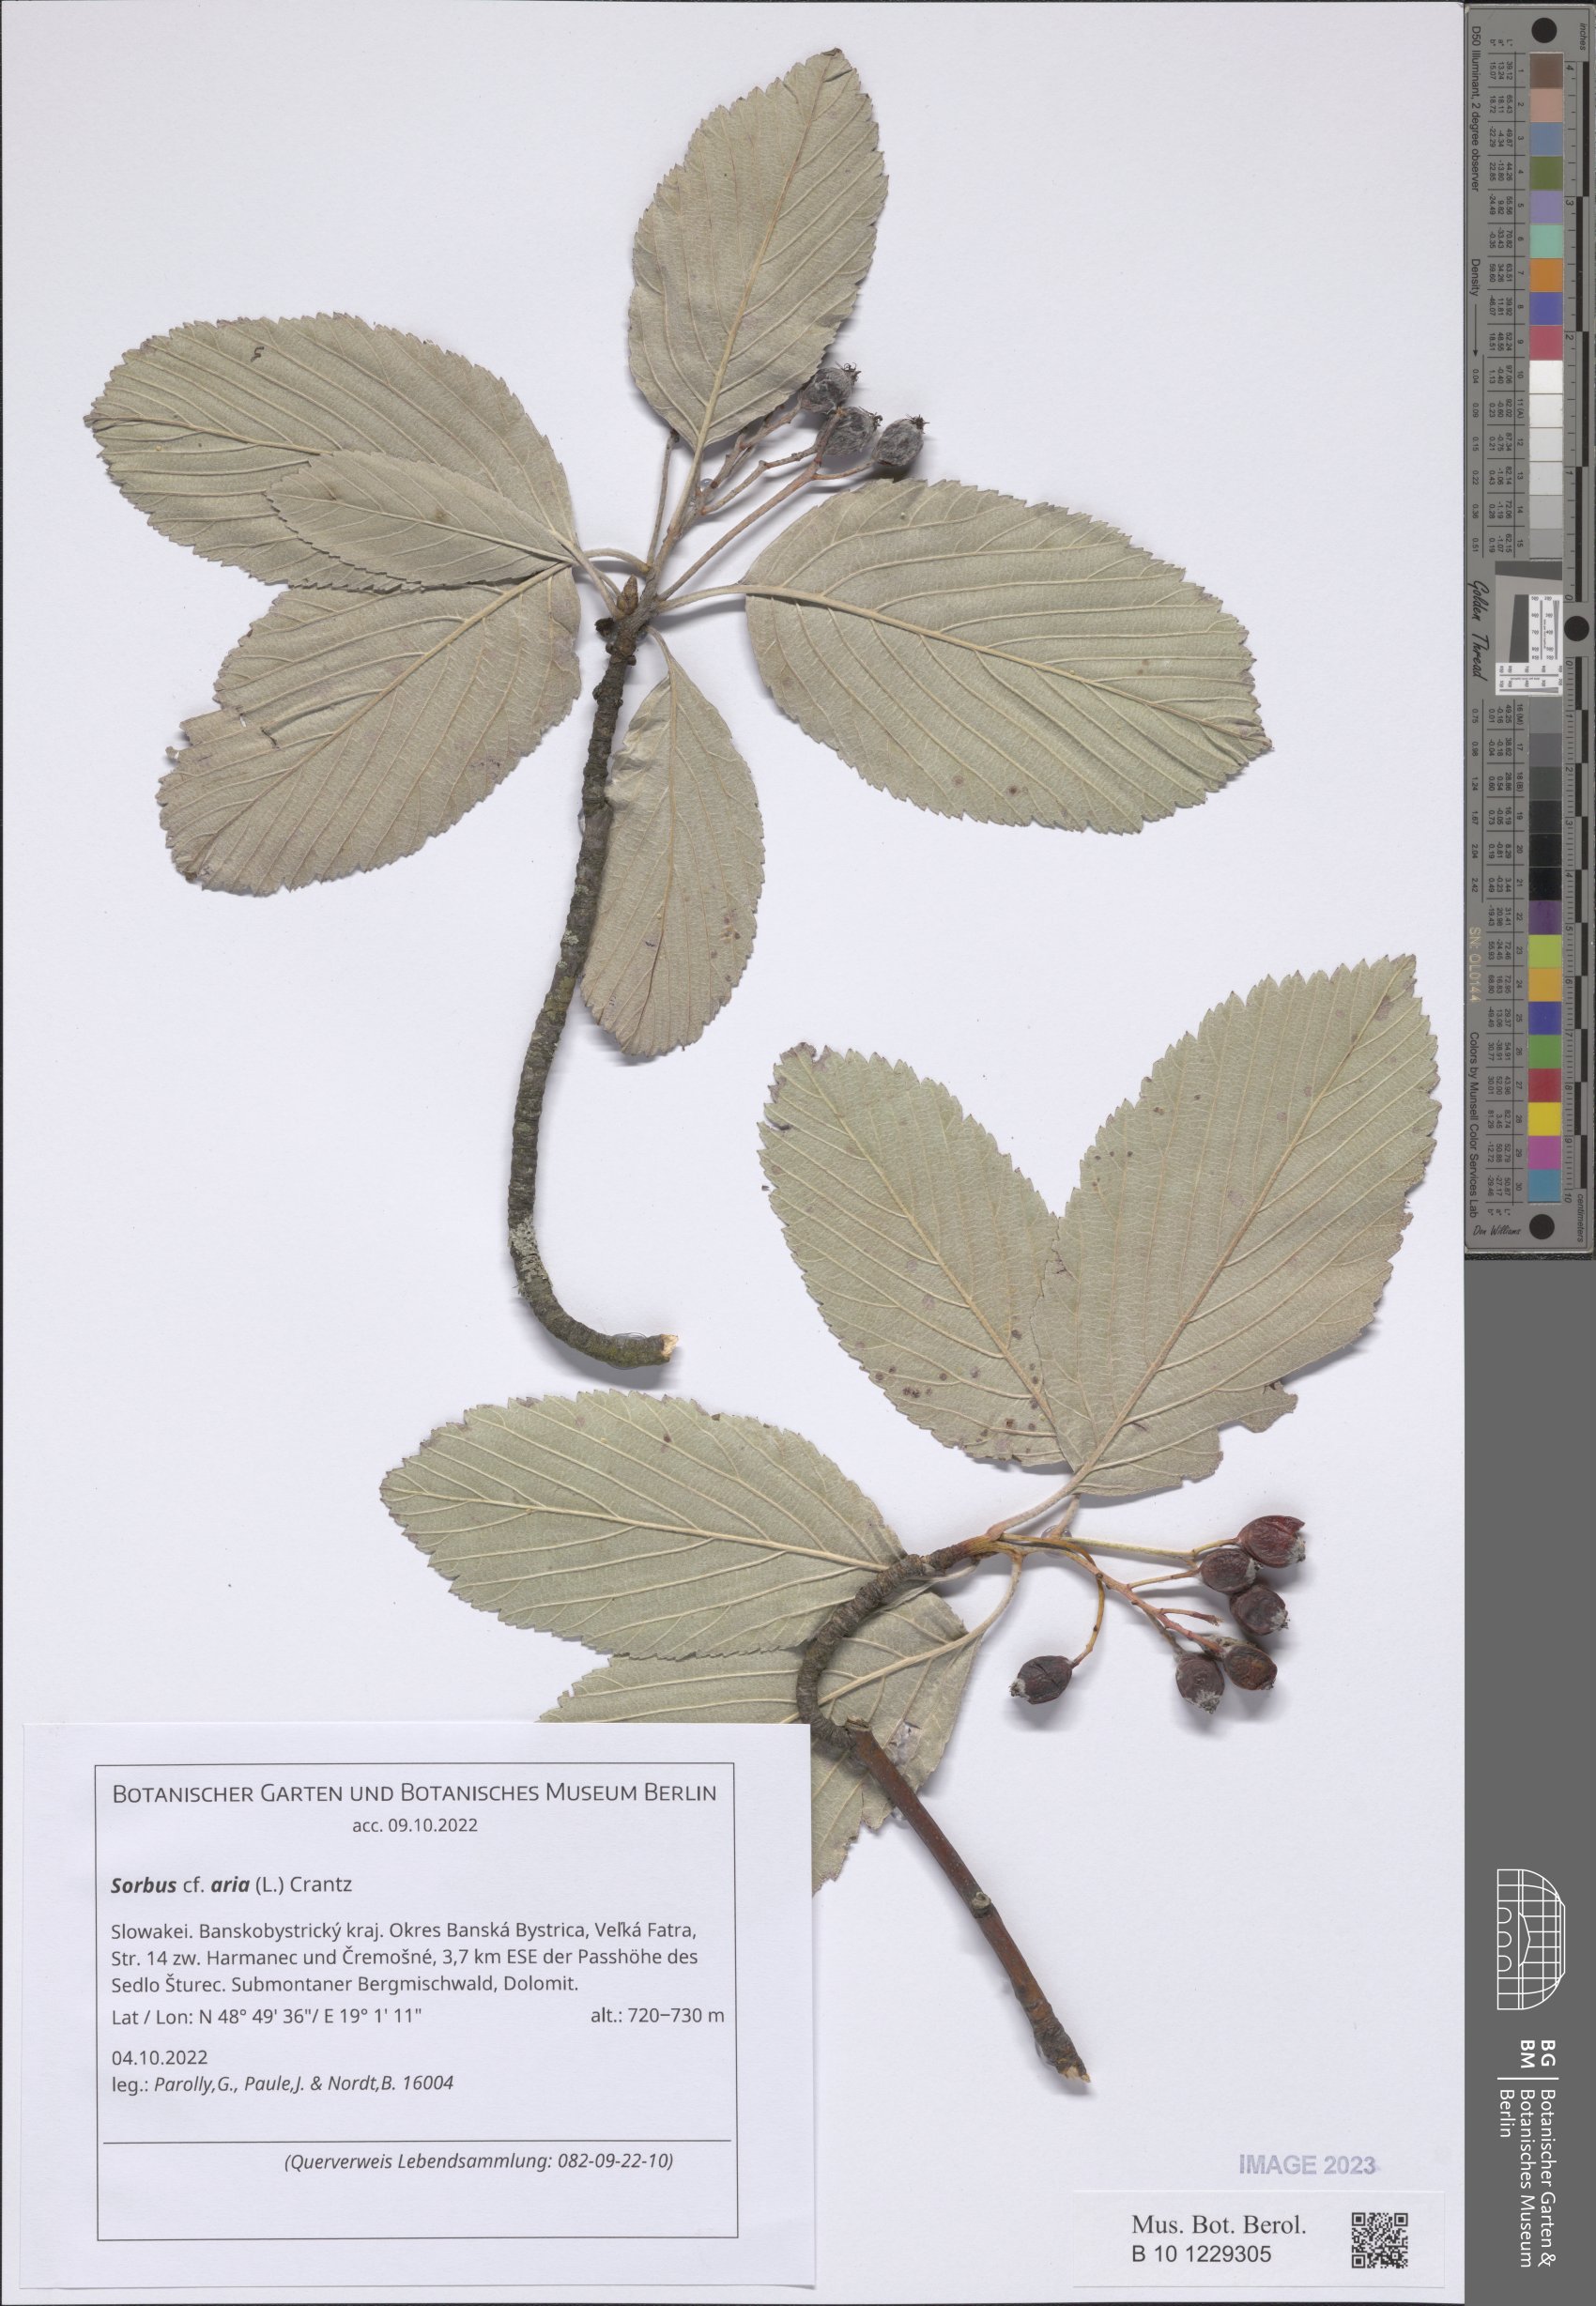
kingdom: Plantae
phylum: Tracheophyta
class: Magnoliopsida
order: Rosales
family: Rosaceae
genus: Aria
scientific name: Aria edulis
